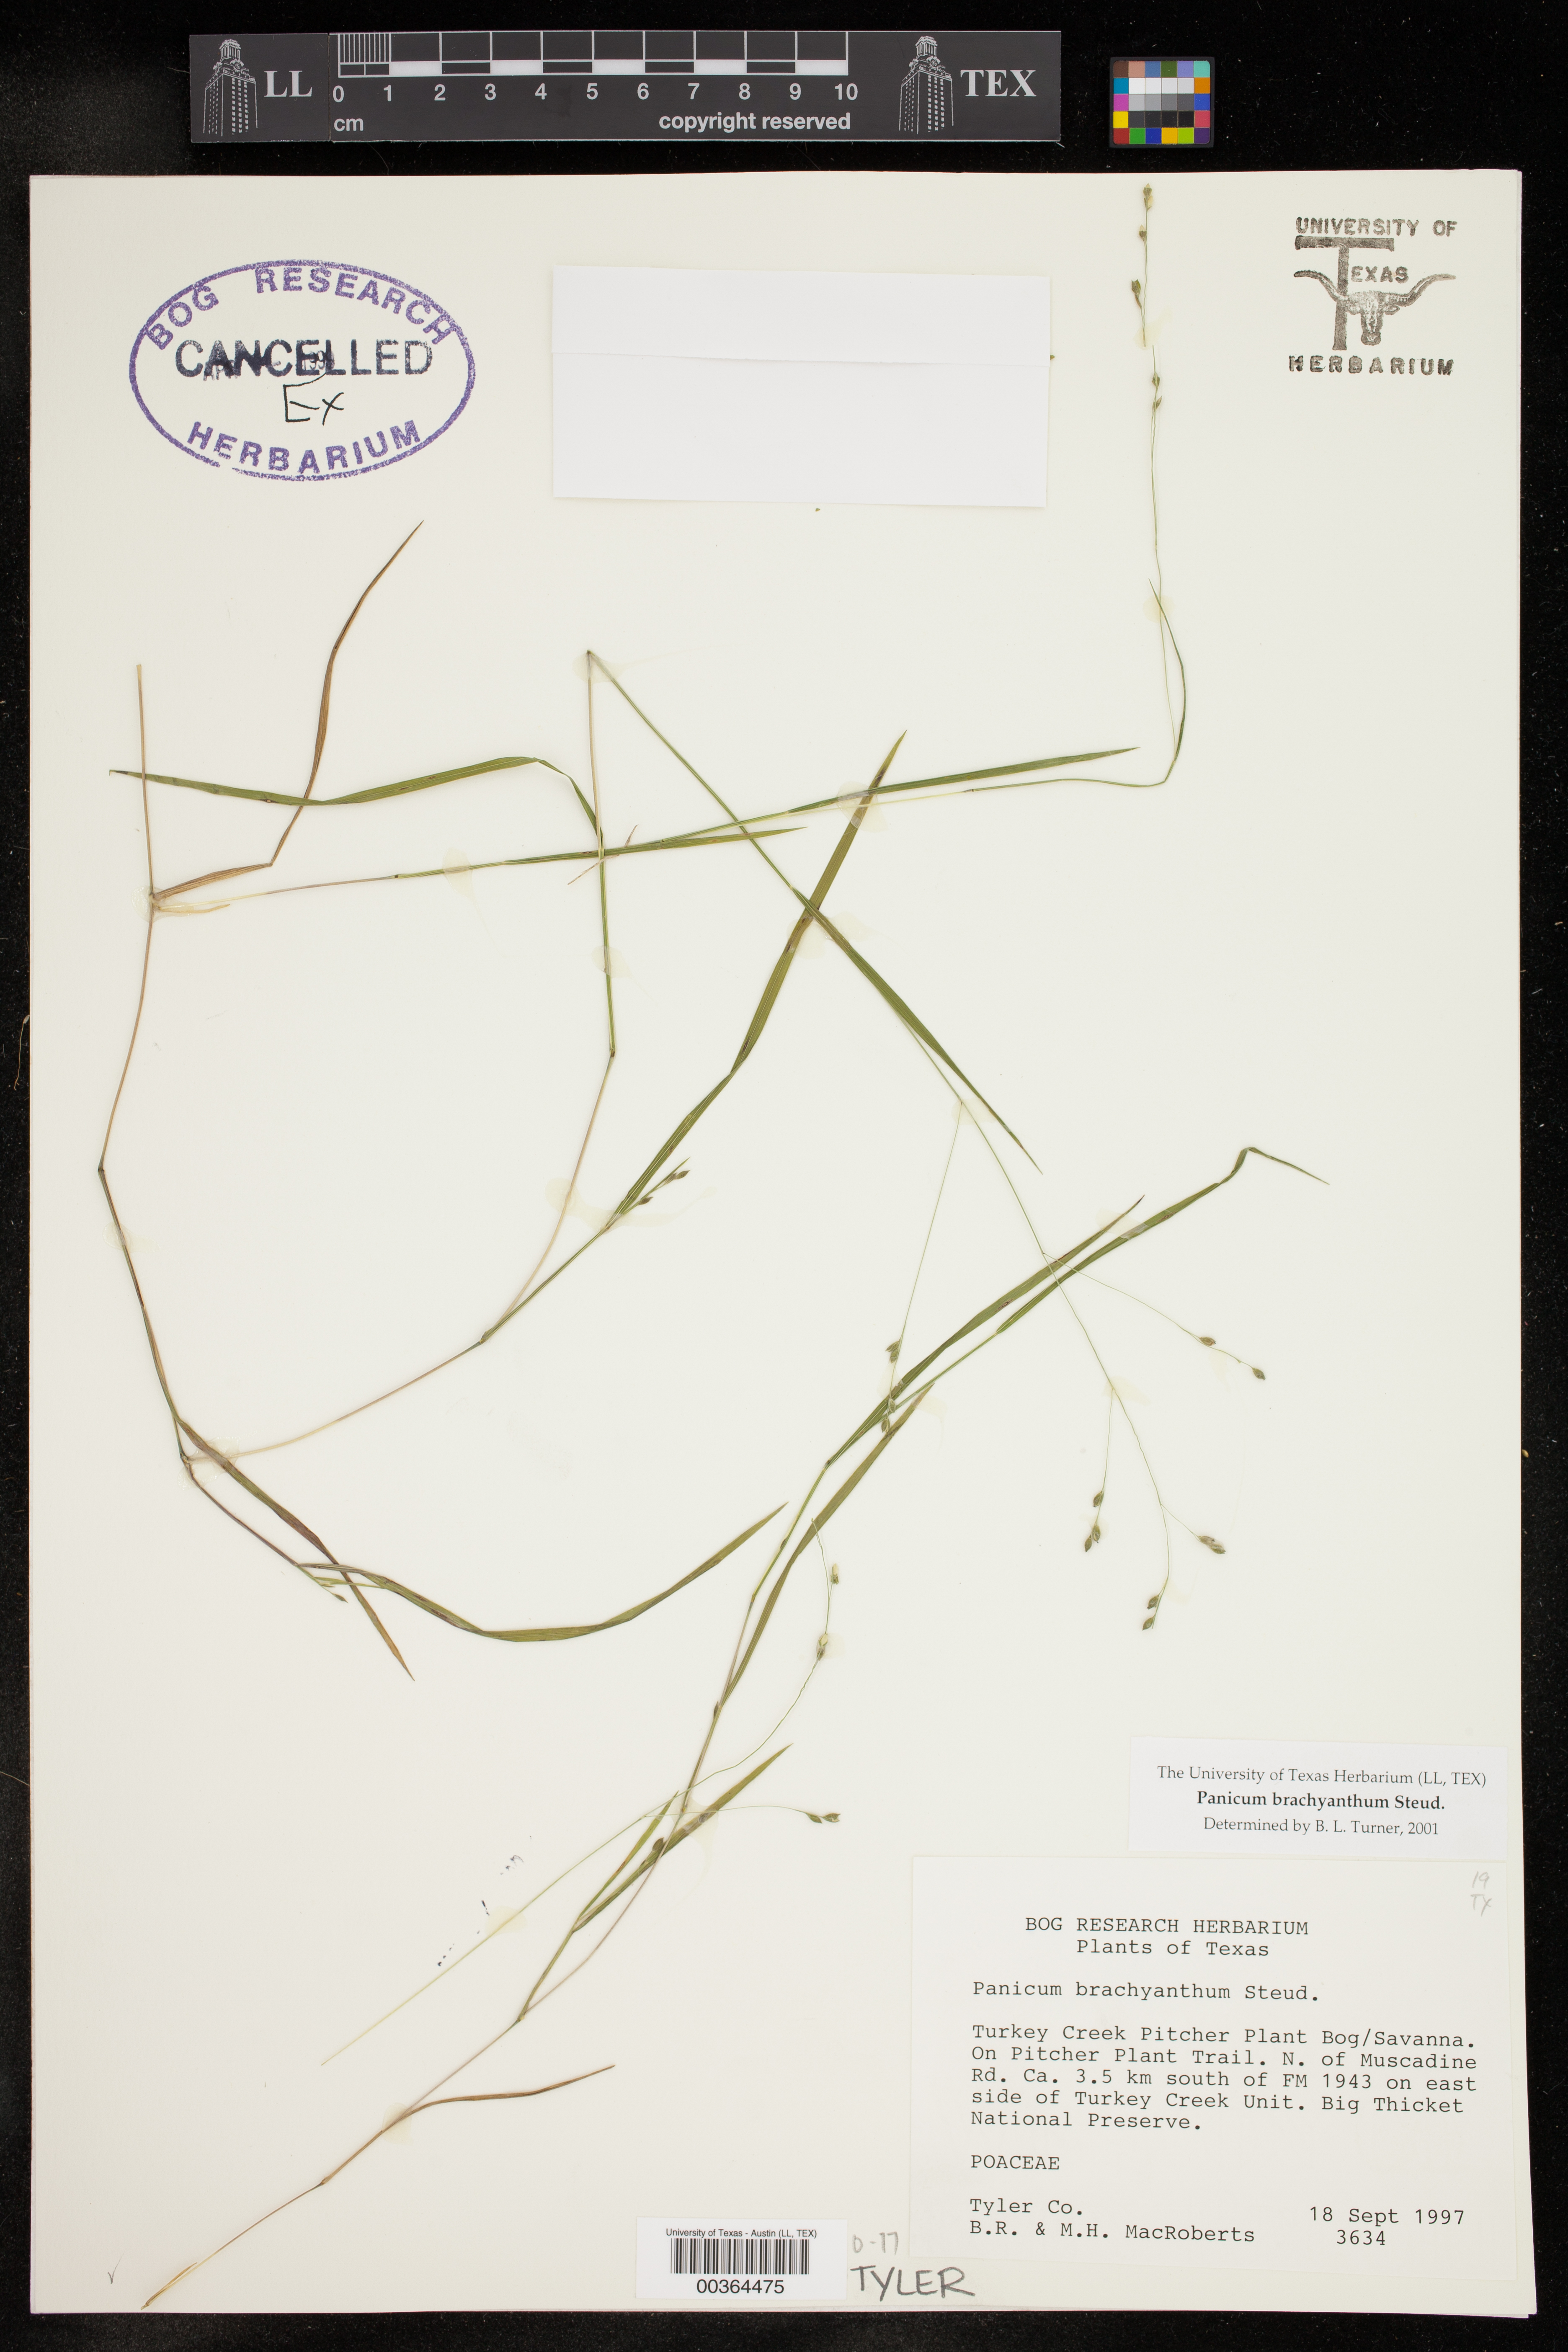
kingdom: Plantae
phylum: Tracheophyta
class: Liliopsida
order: Poales
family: Poaceae
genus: Kellochloa
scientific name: Kellochloa brachyantha
